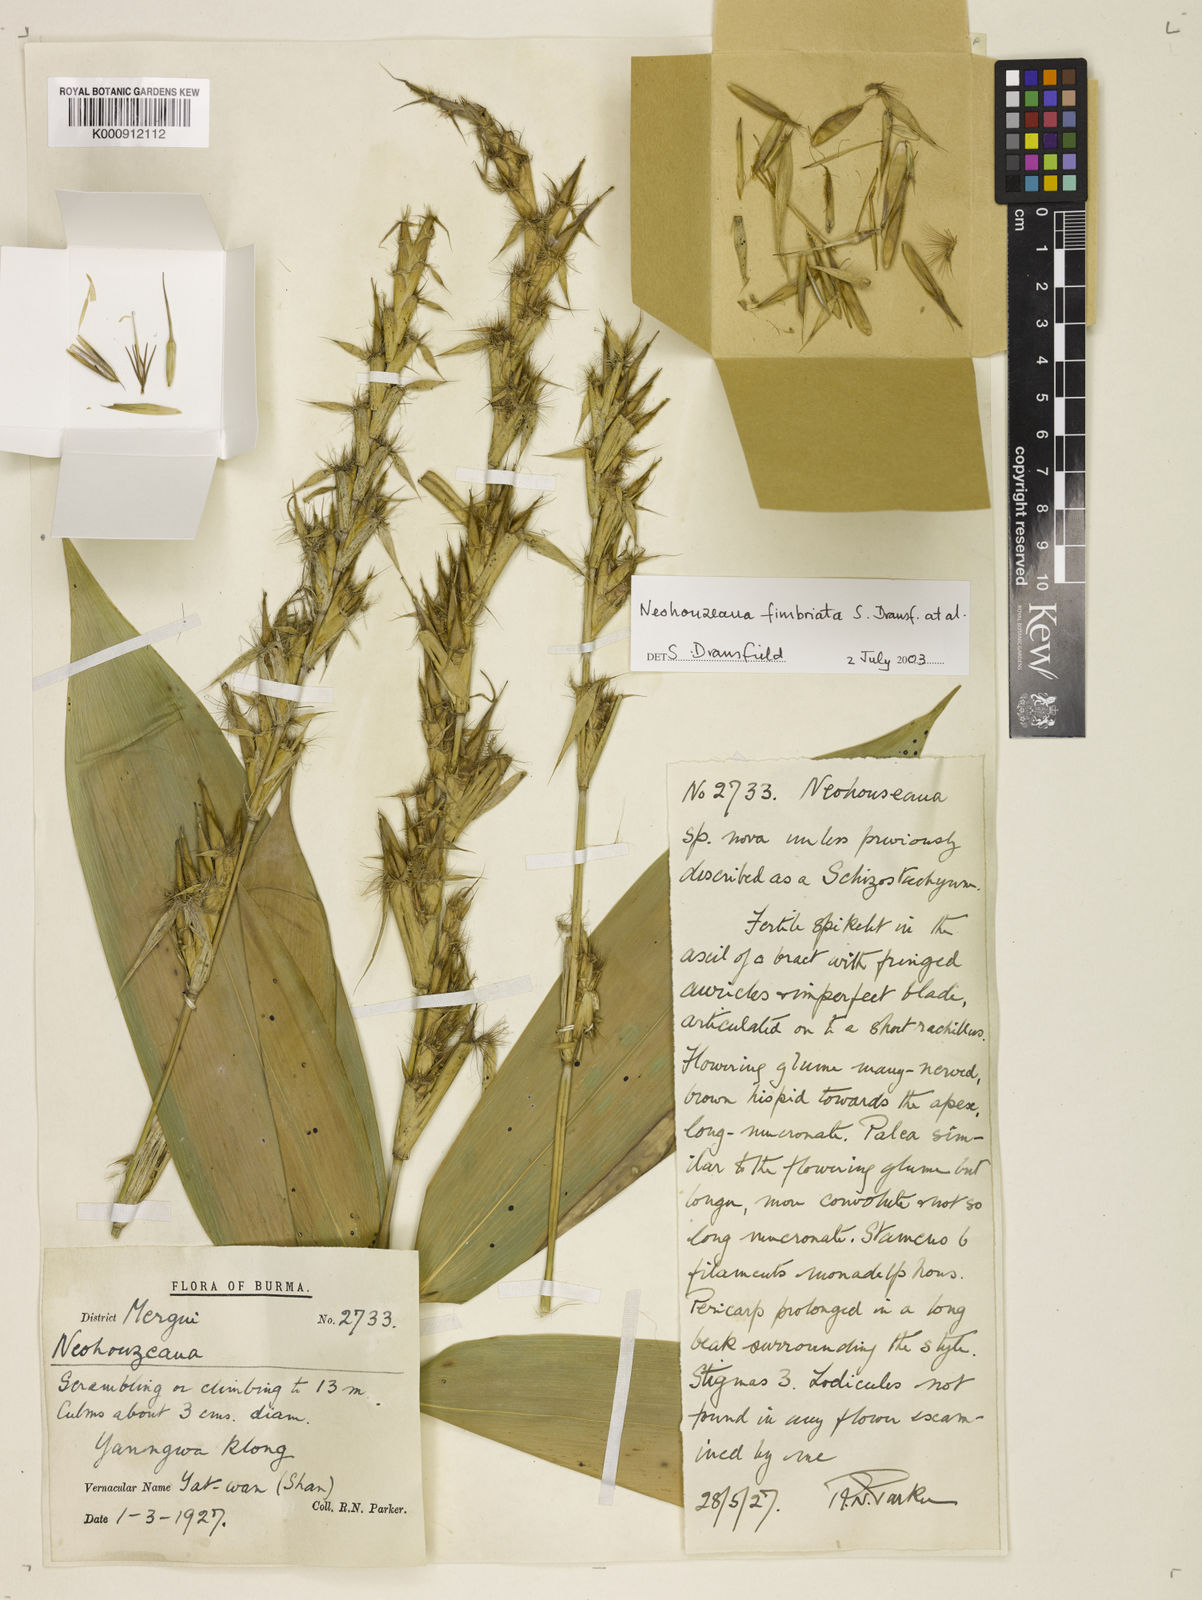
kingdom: Plantae
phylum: Tracheophyta
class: Liliopsida
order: Poales
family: Poaceae
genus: Schizostachyum
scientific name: Schizostachyum
